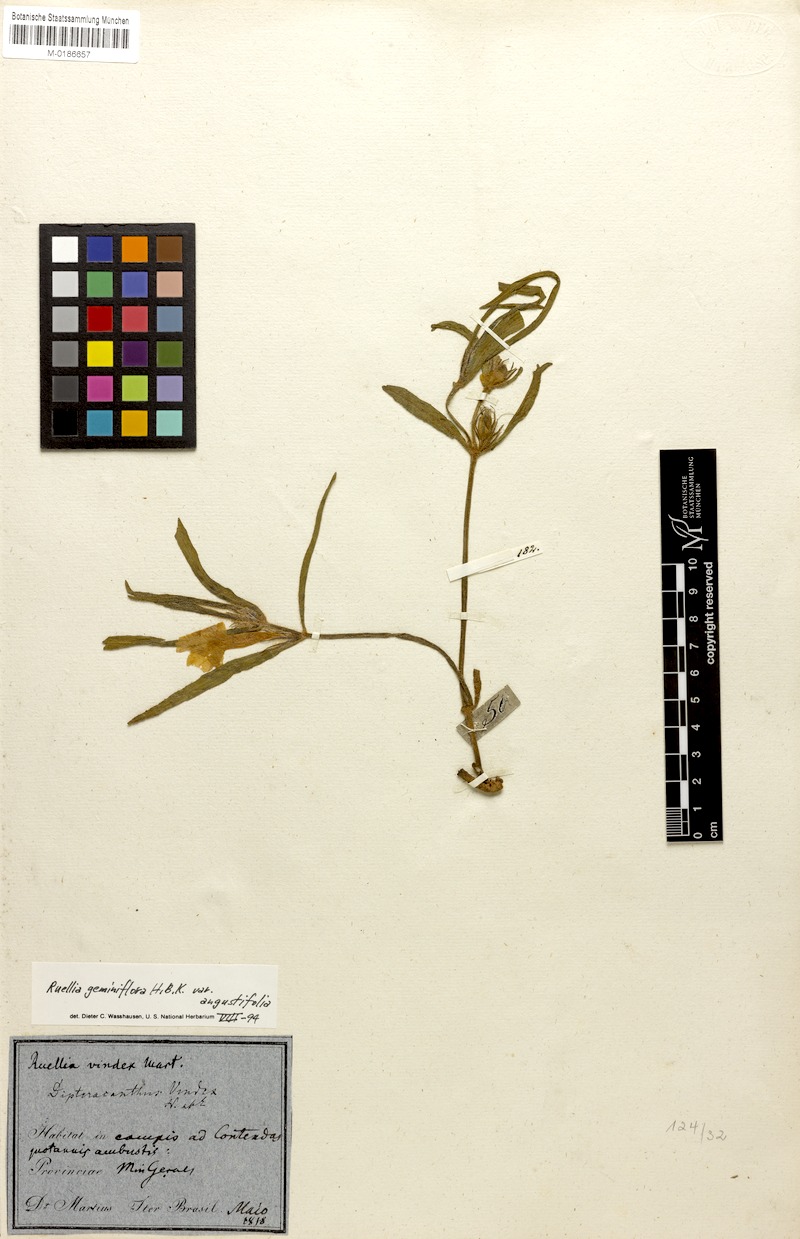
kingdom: Plantae
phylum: Tracheophyta
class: Magnoliopsida
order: Lamiales
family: Acanthaceae
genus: Ruellia
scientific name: Ruellia geminiflora
